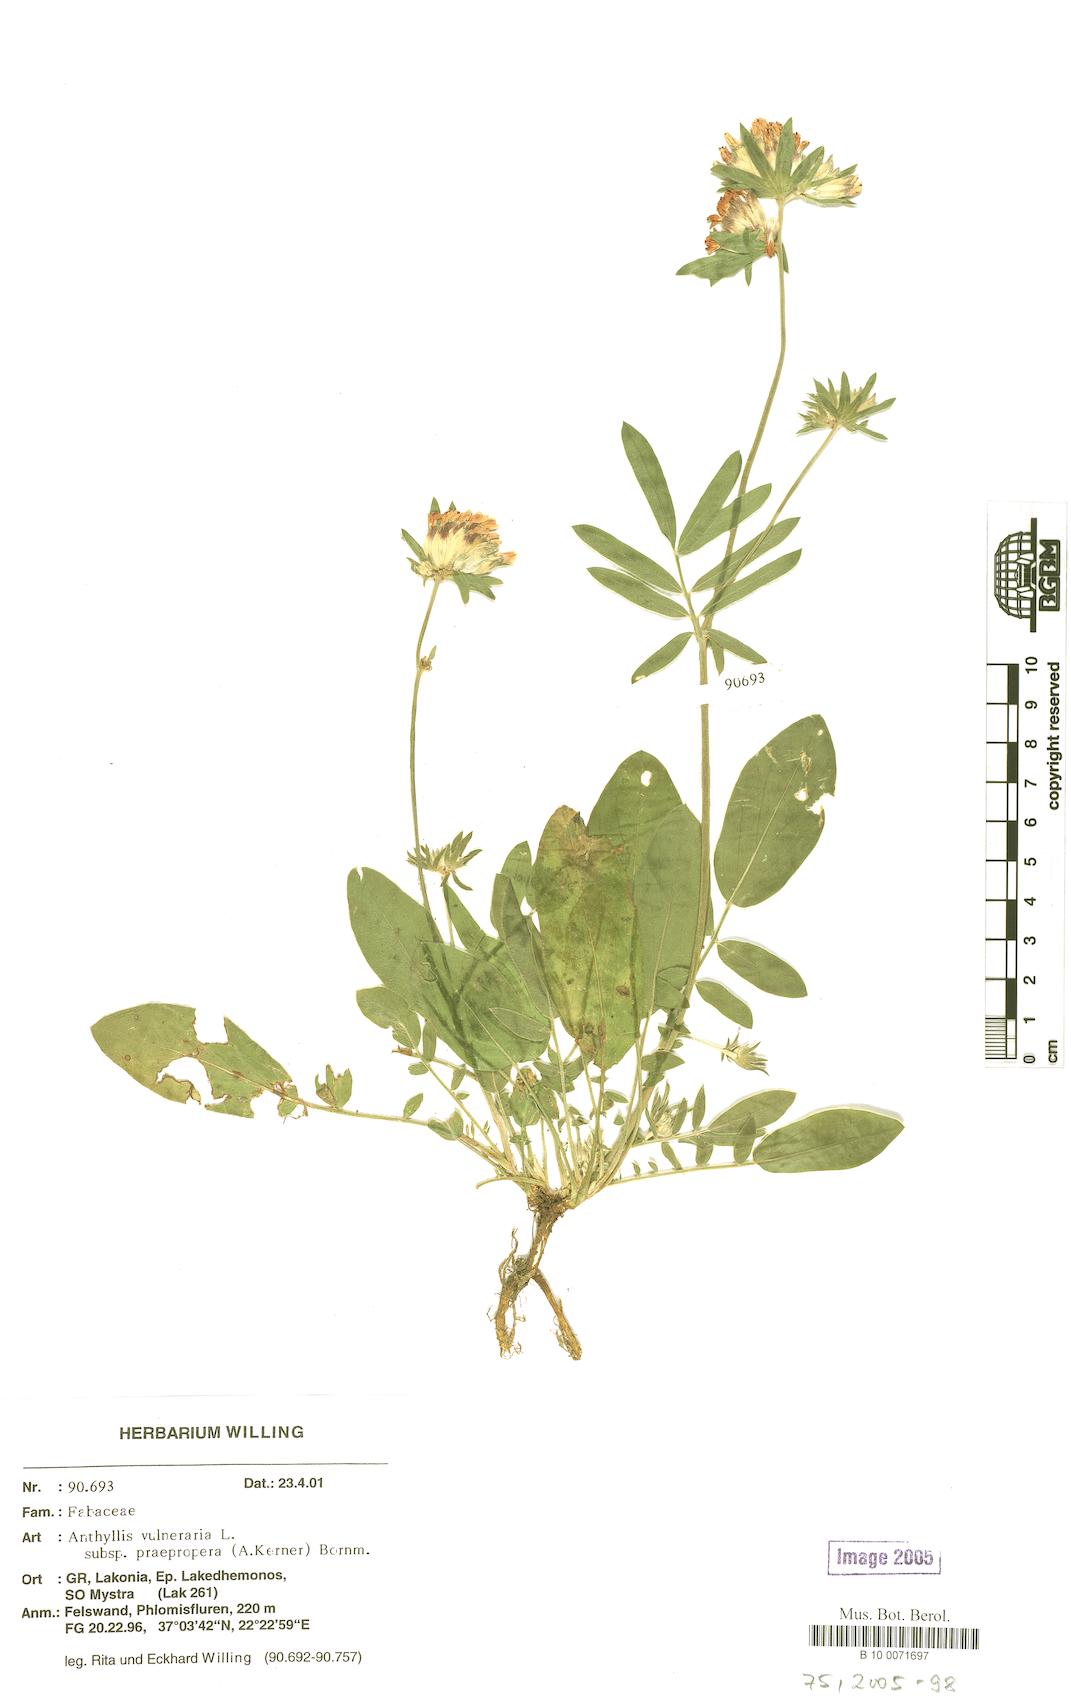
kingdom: Plantae
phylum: Tracheophyta
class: Magnoliopsida
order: Fabales
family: Fabaceae
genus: Anthyllis
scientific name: Anthyllis vulneraria
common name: Kidney vetch
